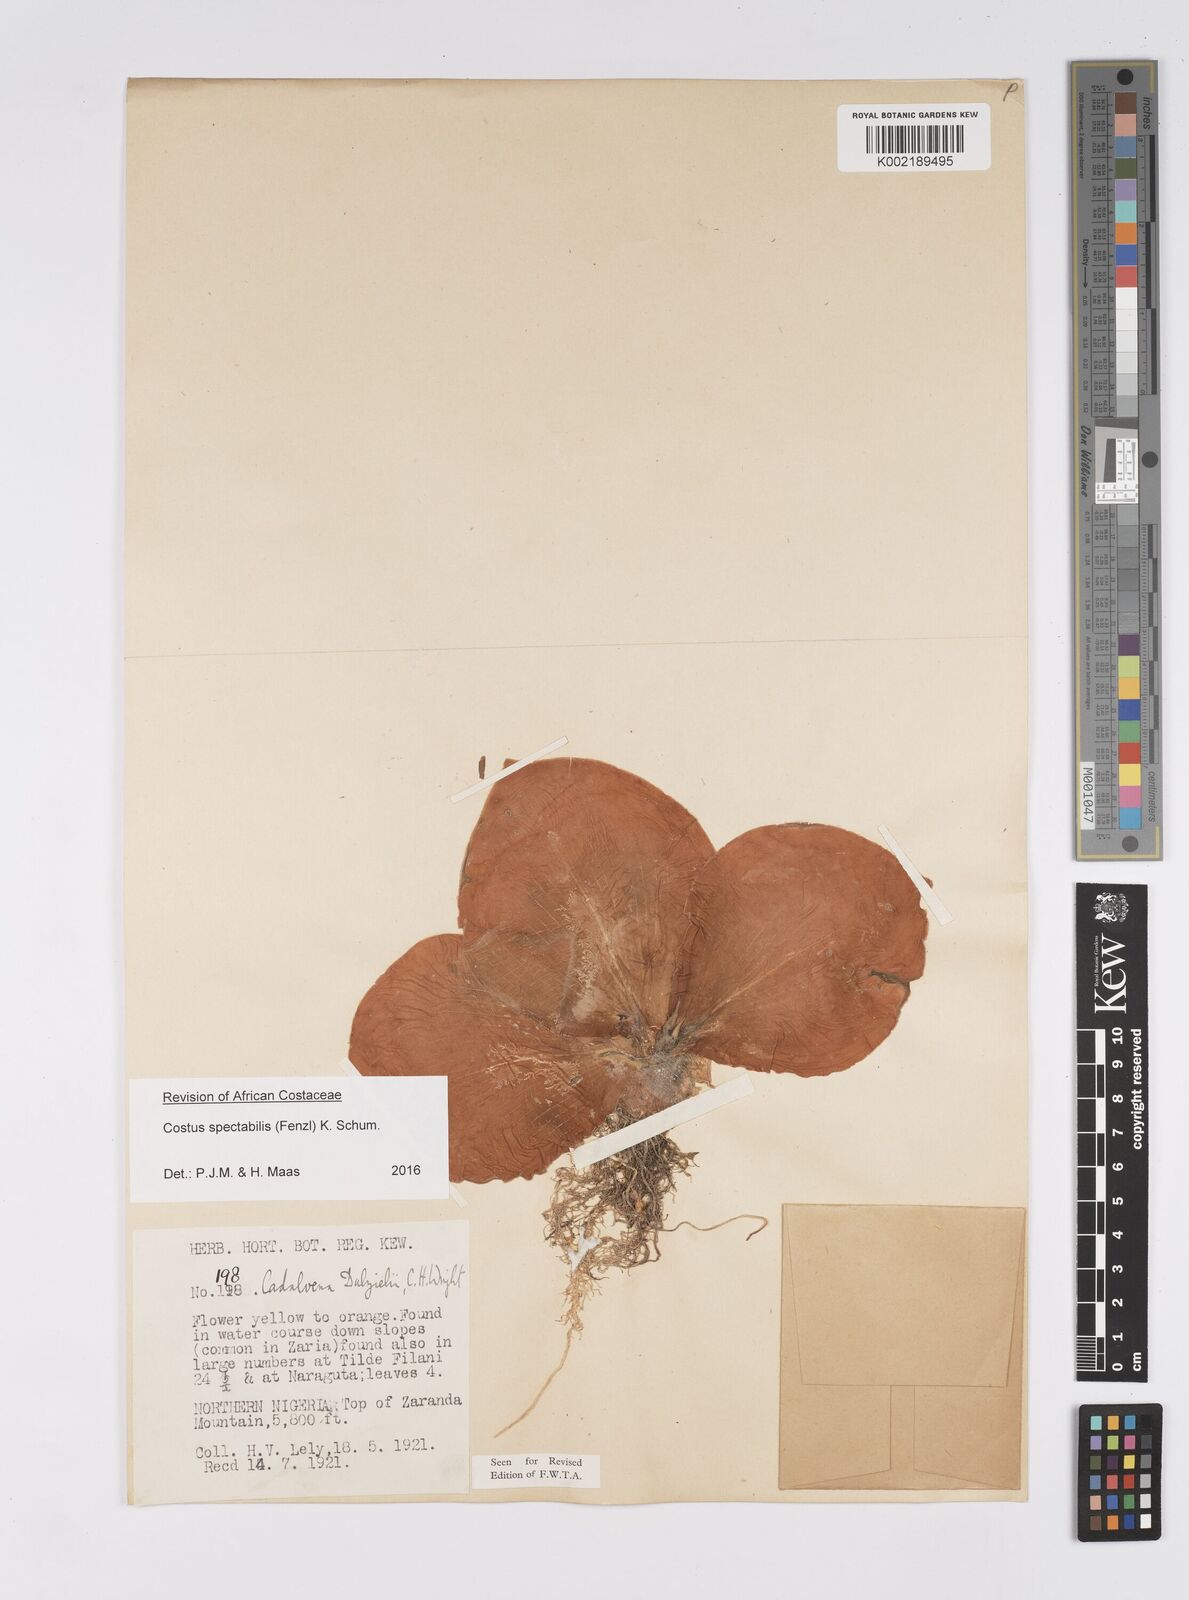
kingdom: Plantae
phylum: Tracheophyta
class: Liliopsida
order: Zingiberales
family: Costaceae
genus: Costus
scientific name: Costus spectabilis
